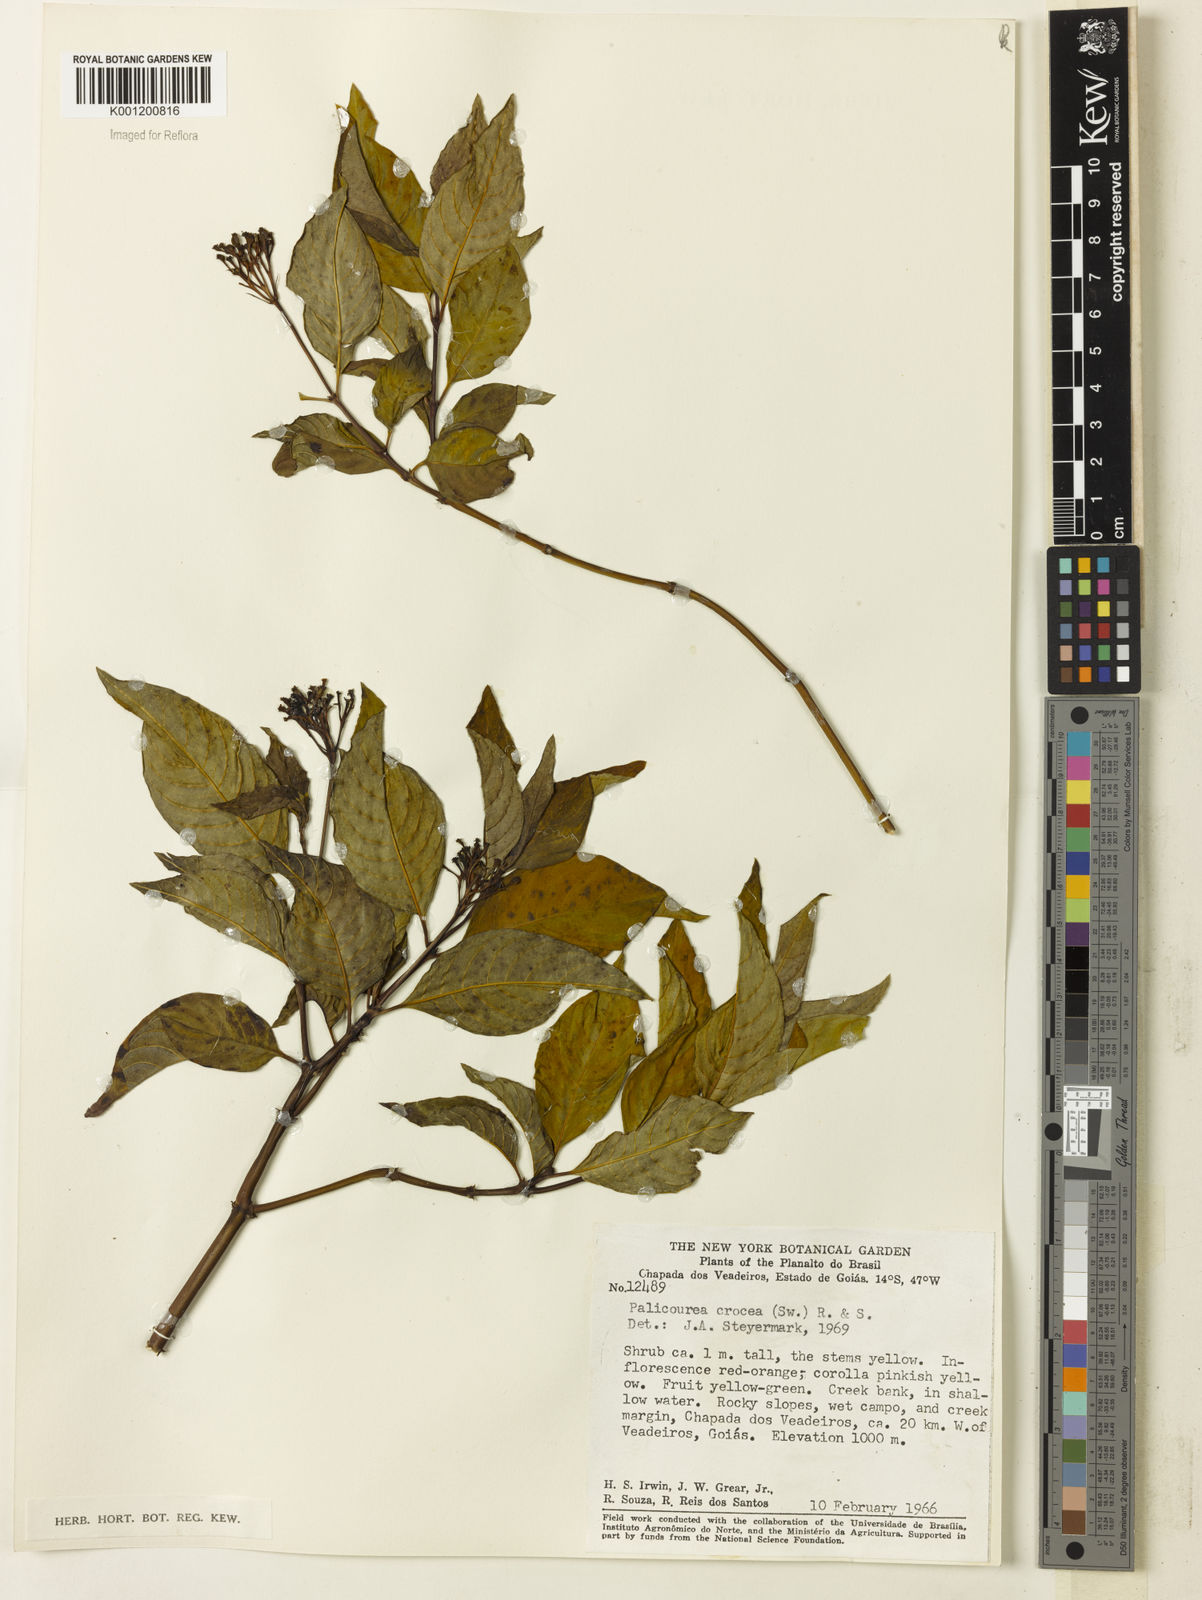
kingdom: Plantae
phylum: Tracheophyta
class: Magnoliopsida
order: Gentianales
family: Rubiaceae
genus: Palicourea
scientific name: Palicourea crocea
